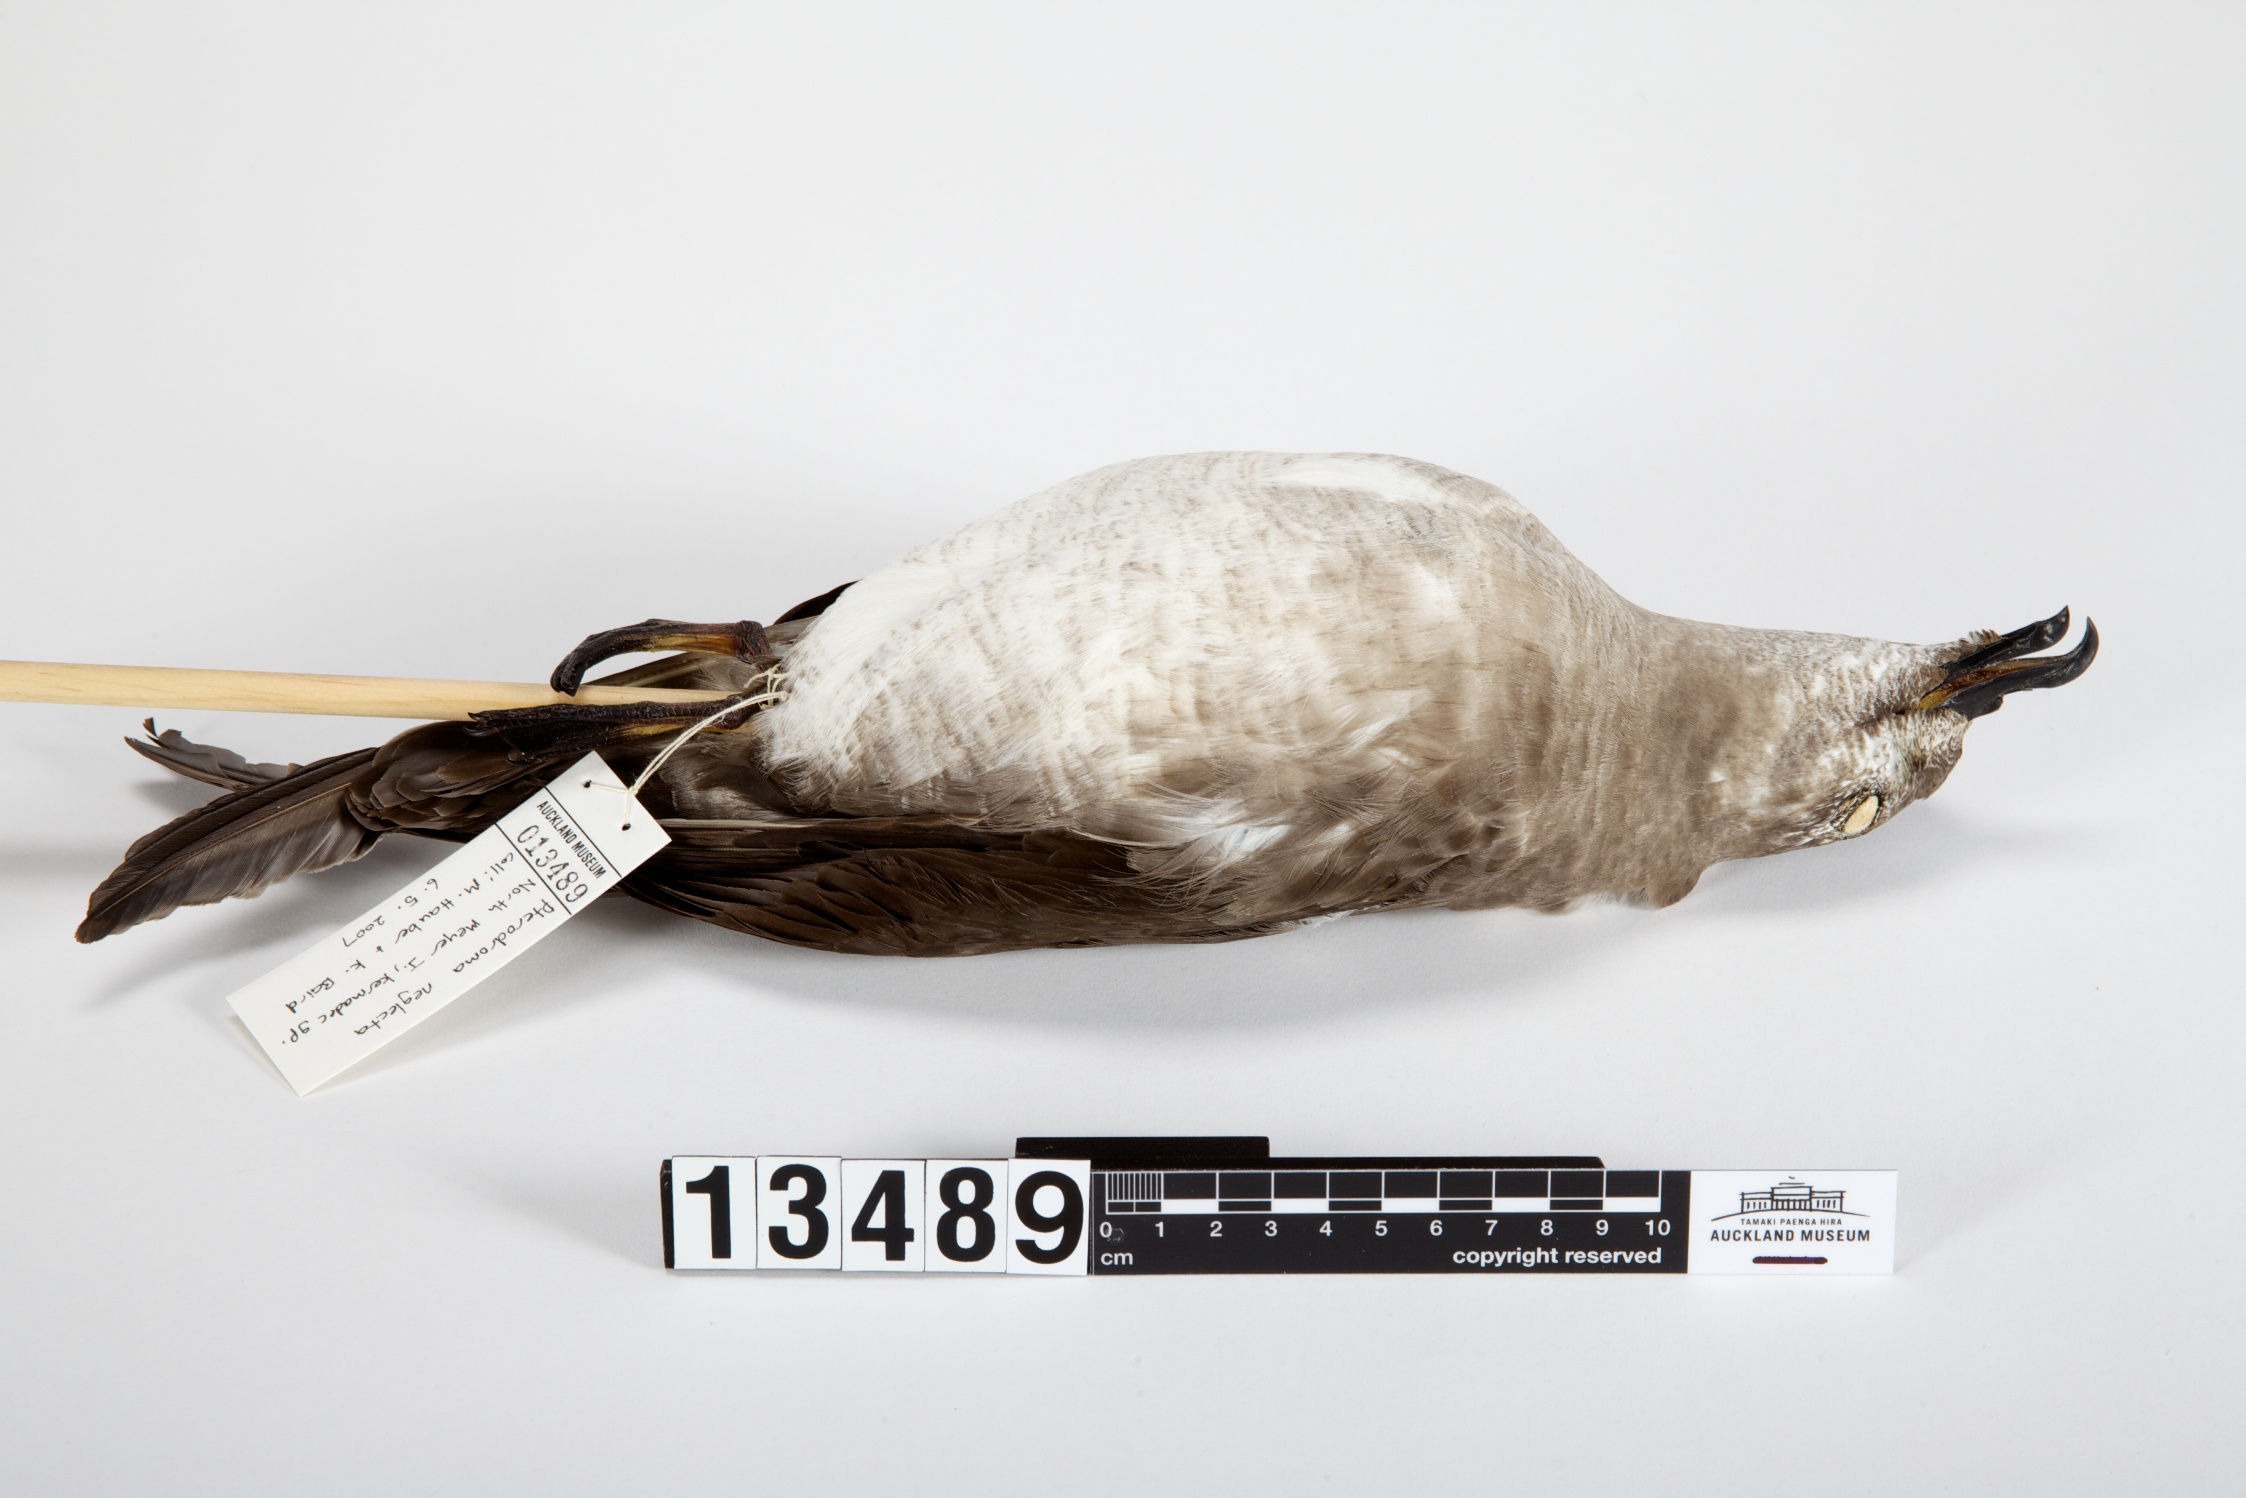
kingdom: Animalia
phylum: Chordata
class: Aves
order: Procellariiformes
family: Procellariidae
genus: Pterodroma
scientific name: Pterodroma neglecta
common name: Kermadec petrel
